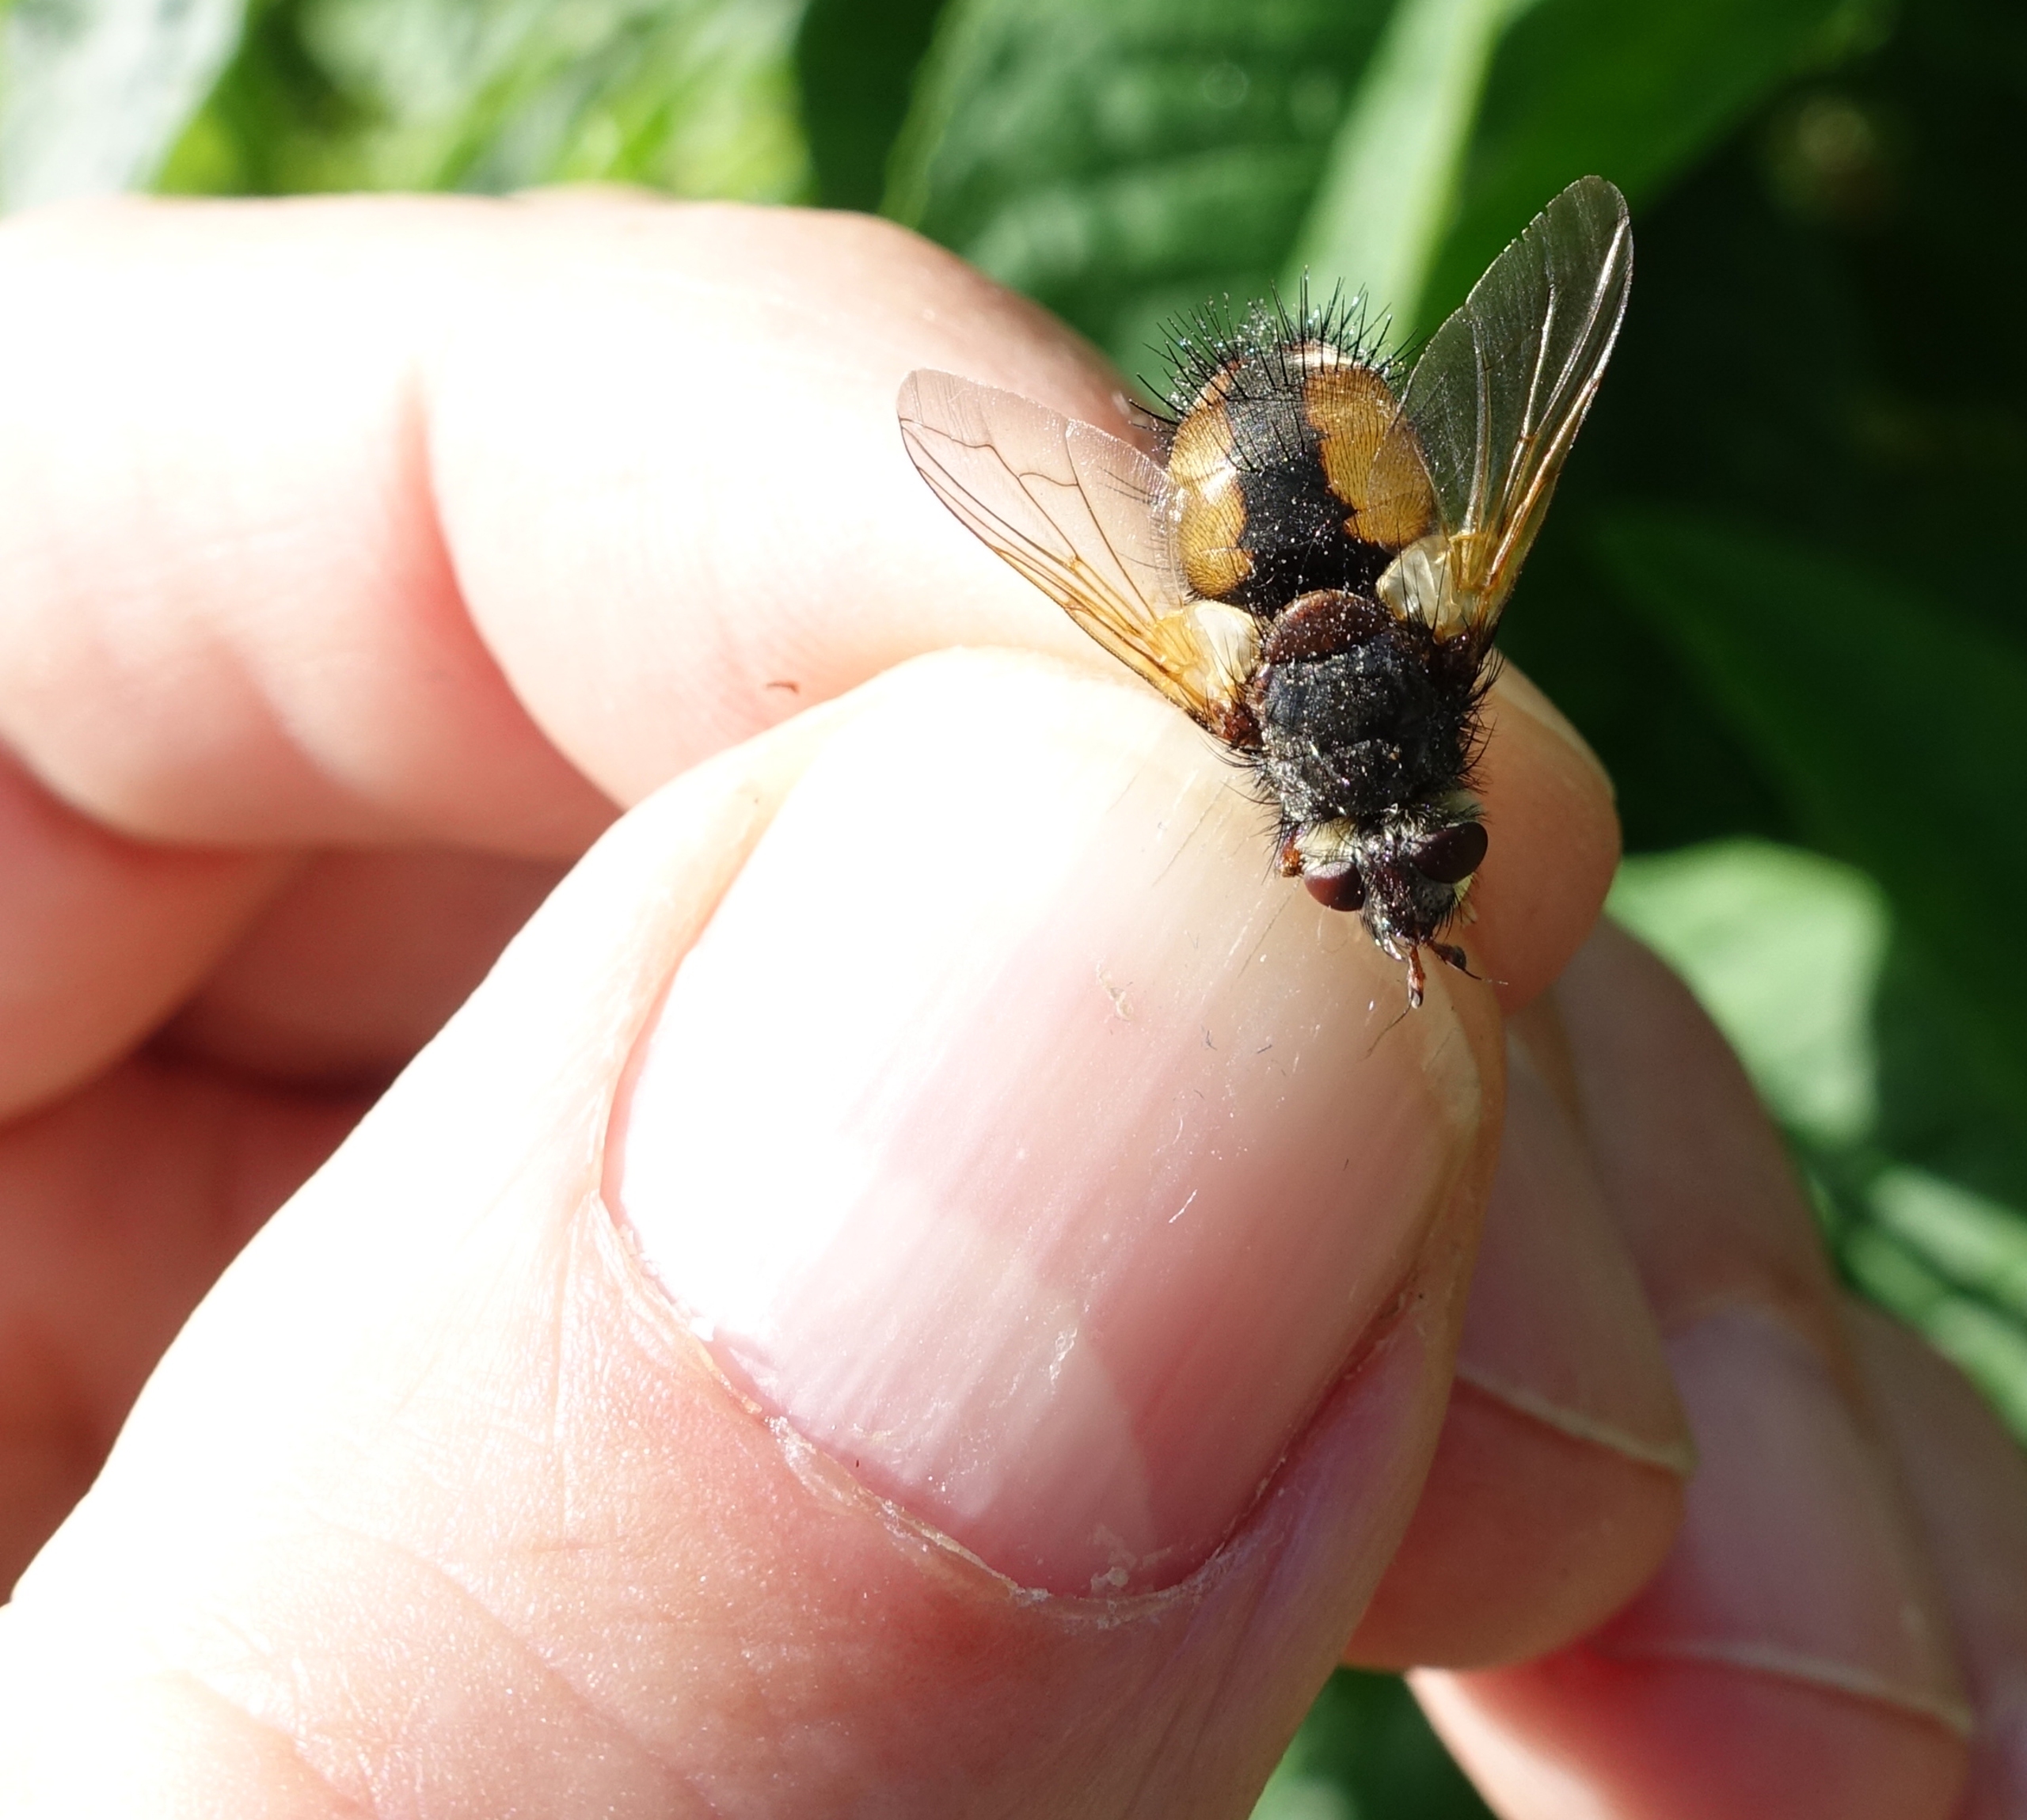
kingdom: Animalia
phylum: Arthropoda
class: Insecta
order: Diptera
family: Tachinidae
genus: Tachina
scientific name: Tachina fera
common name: Mellemfluen oskar
